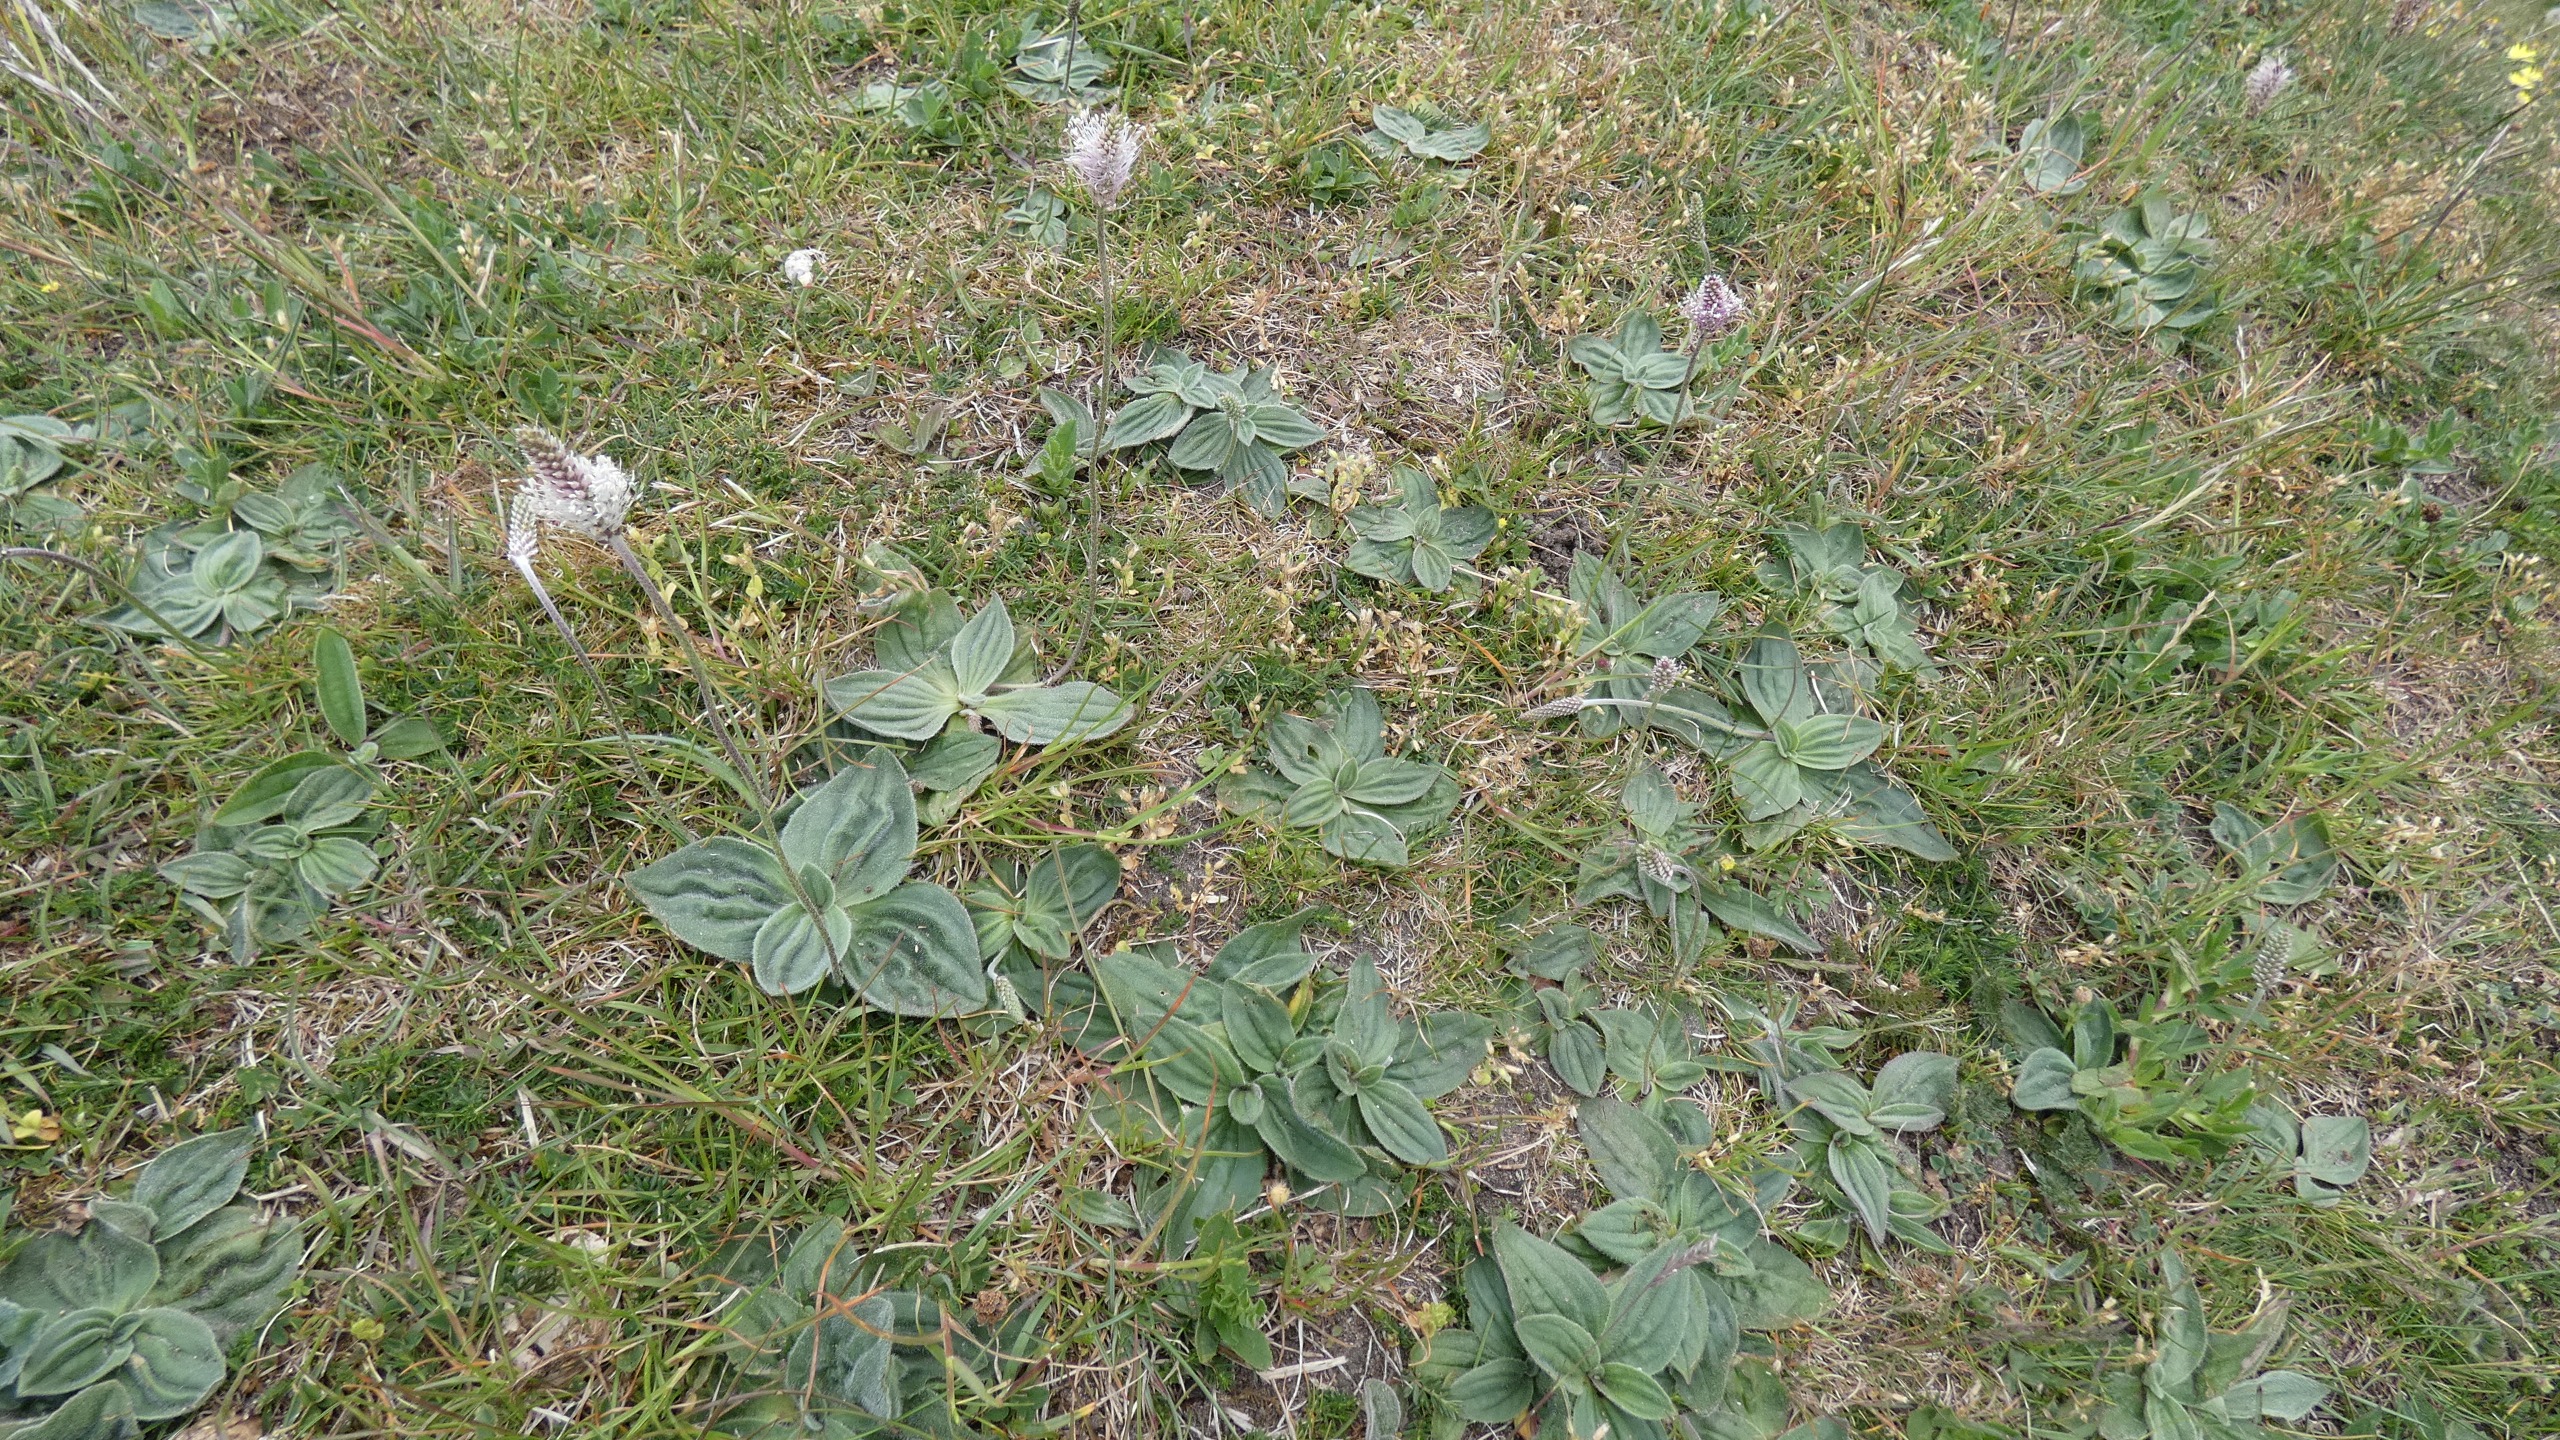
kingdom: Plantae
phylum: Tracheophyta
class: Magnoliopsida
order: Lamiales
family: Plantaginaceae
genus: Plantago
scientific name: Plantago media
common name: Dunet vejbred
